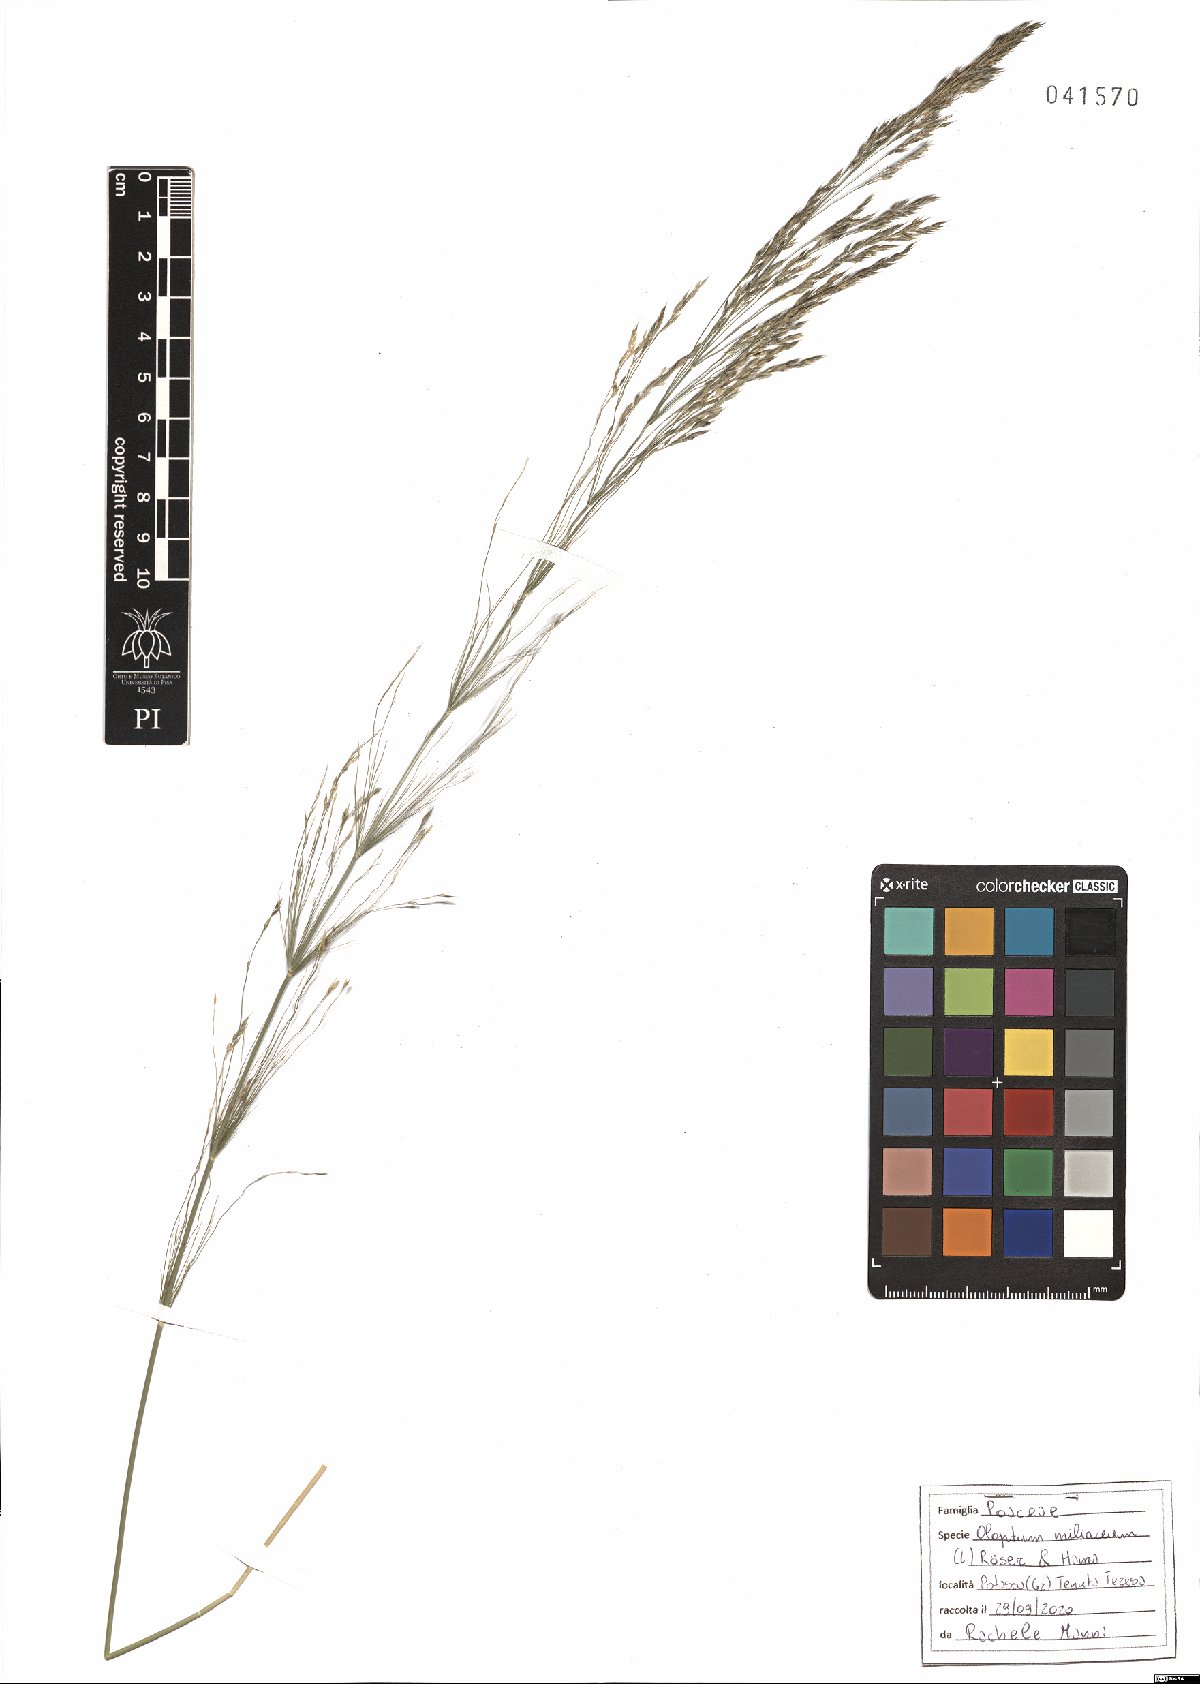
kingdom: Plantae
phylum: Tracheophyta
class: Liliopsida
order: Poales
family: Poaceae
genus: Oloptum
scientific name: Oloptum miliaceum
